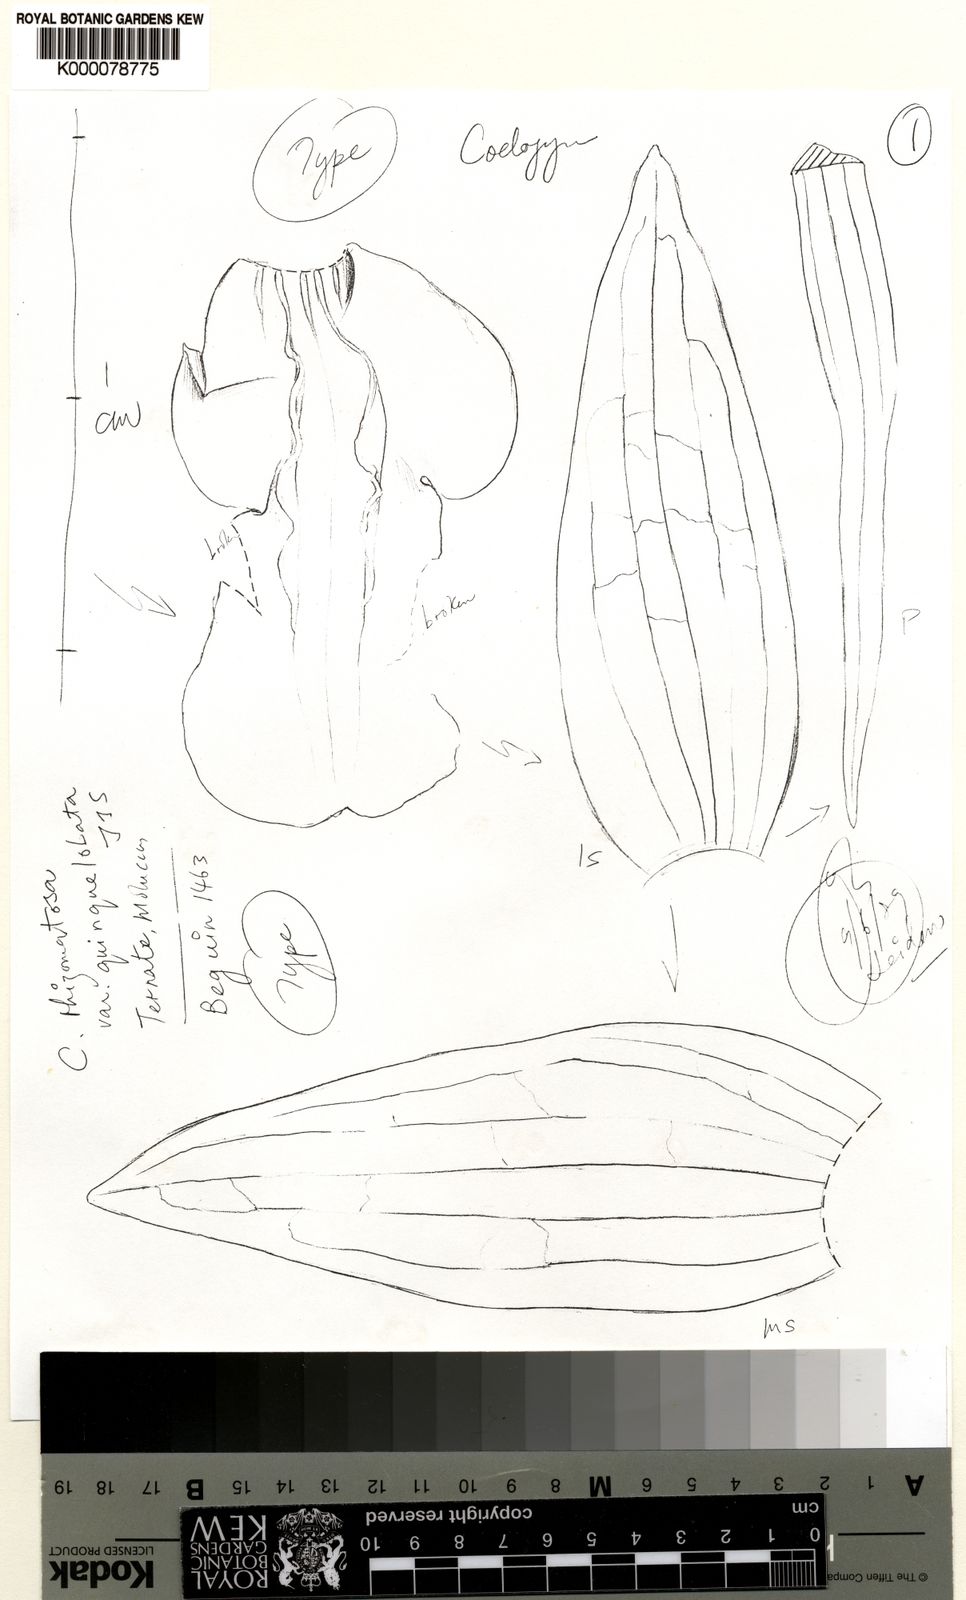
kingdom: Plantae
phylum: Tracheophyta
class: Liliopsida
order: Asparagales
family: Orchidaceae
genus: Coelogyne
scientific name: Coelogyne prasina
